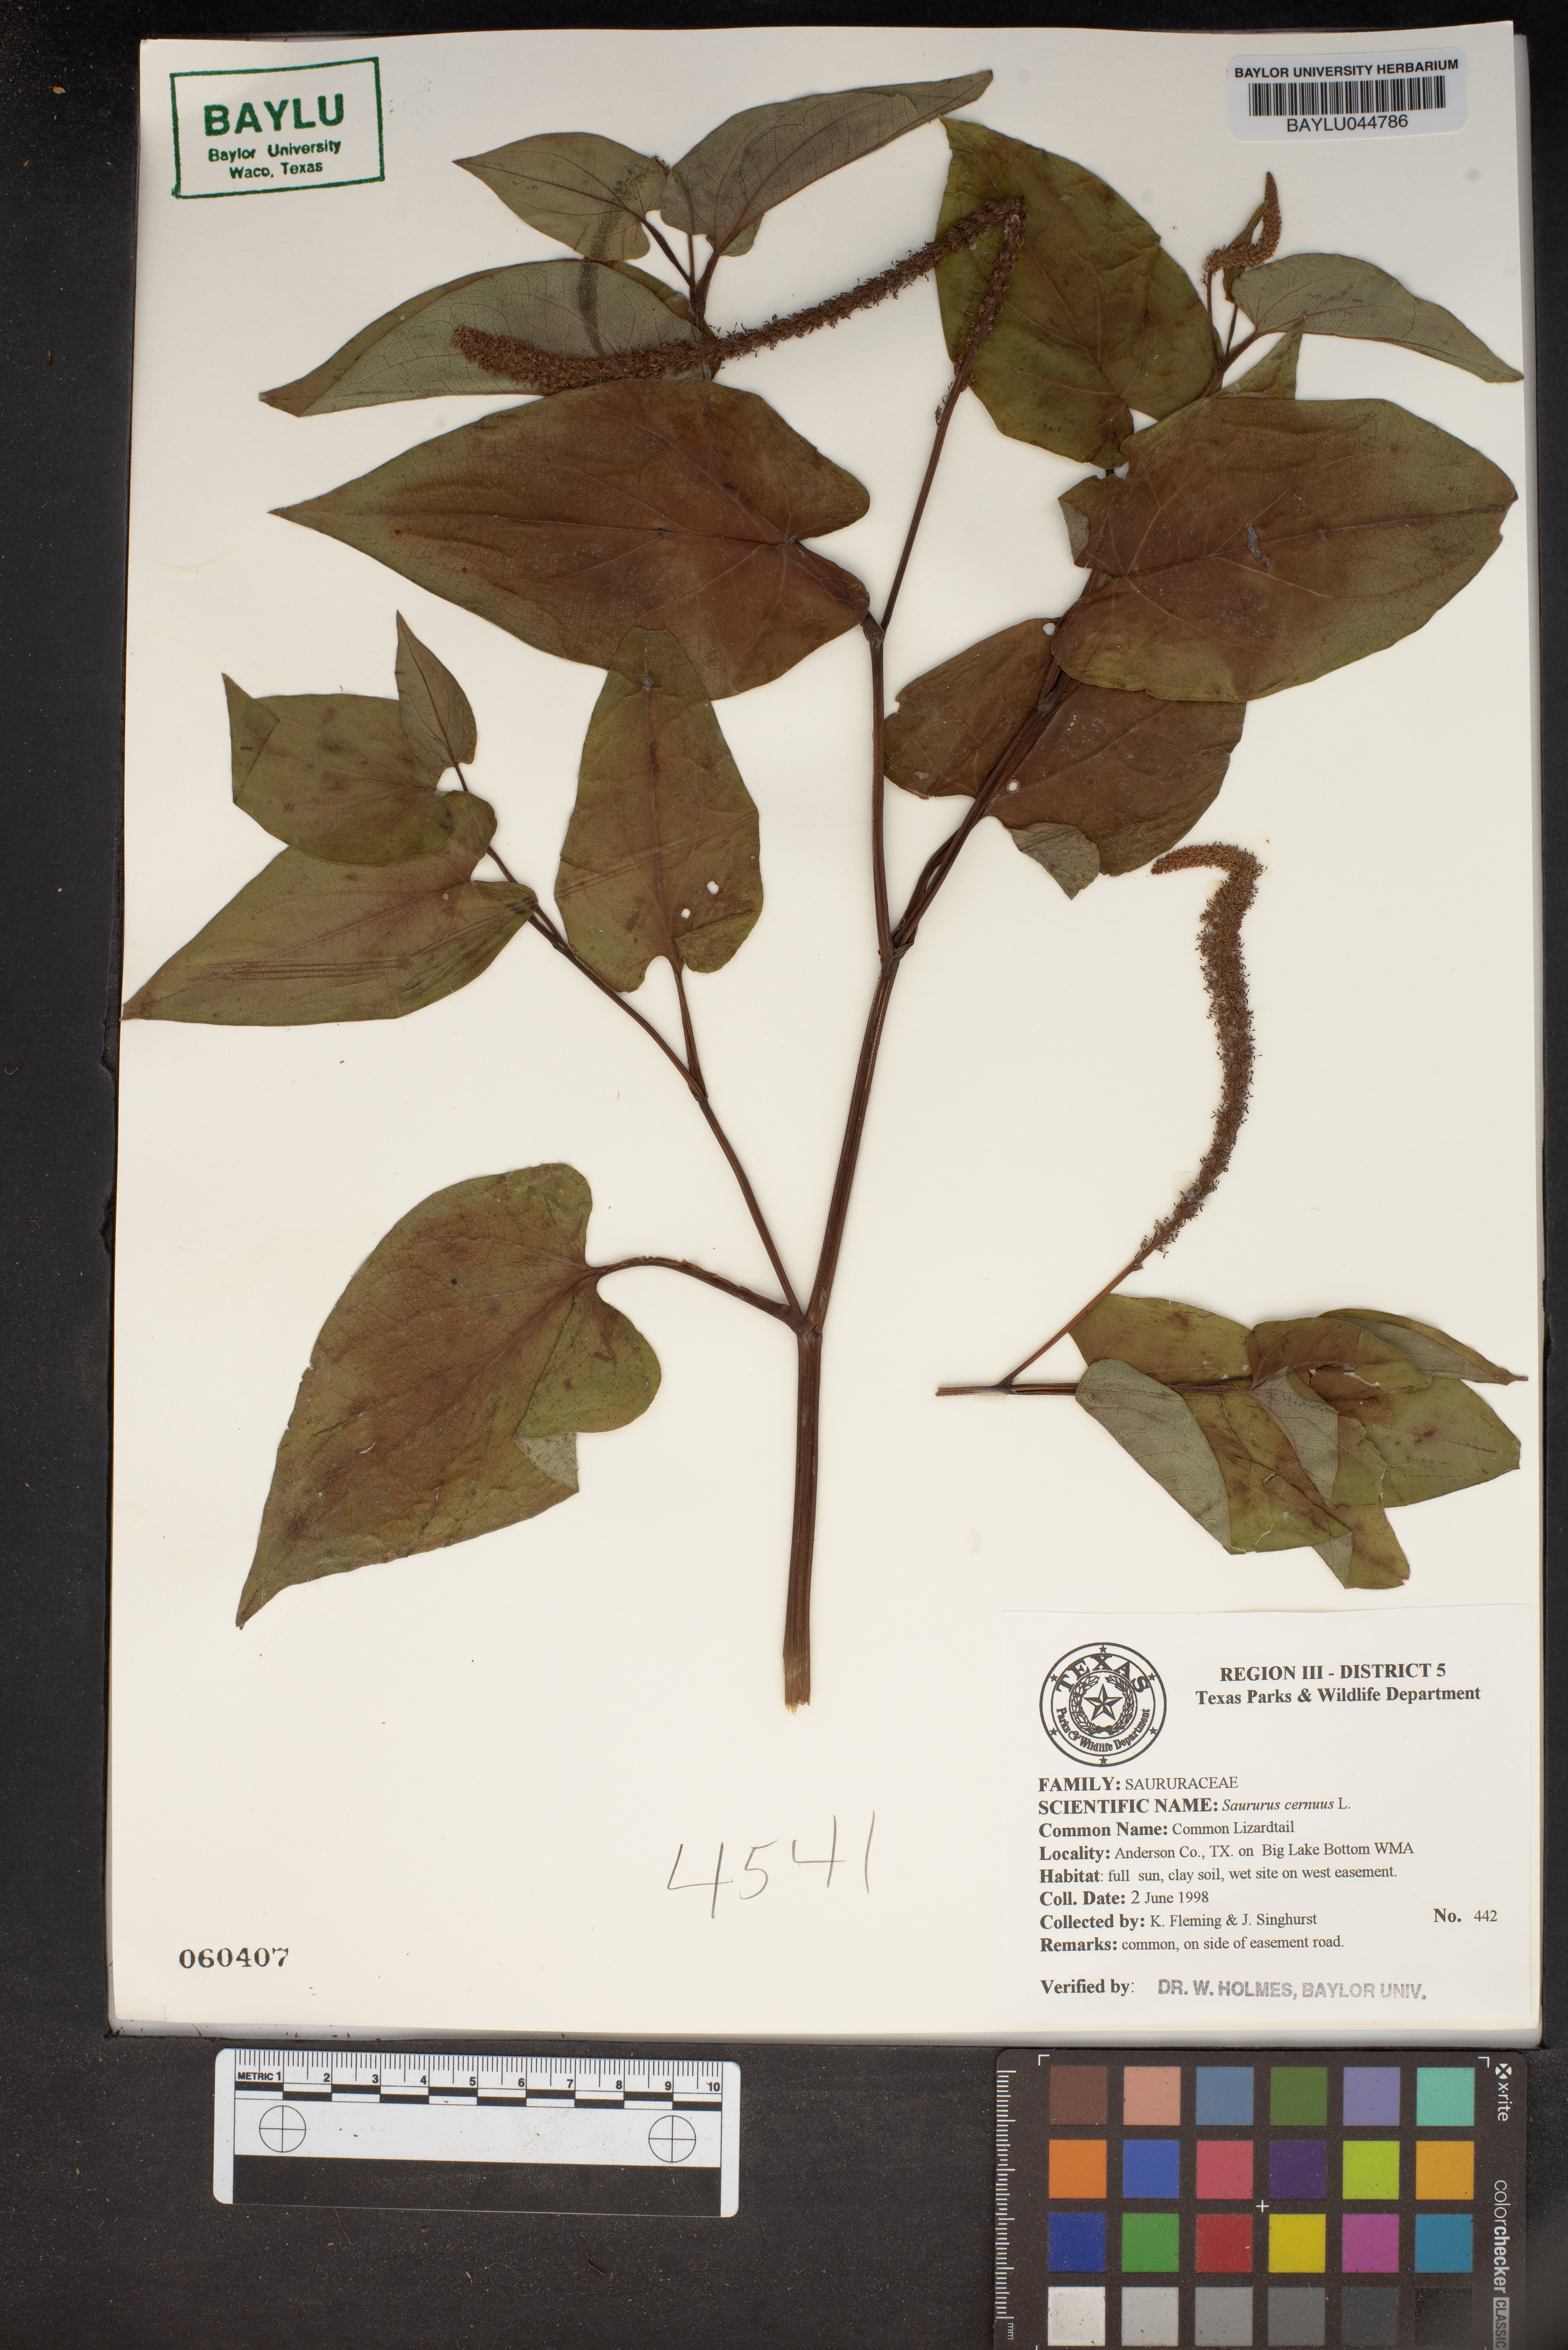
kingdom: Plantae
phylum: Tracheophyta
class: Magnoliopsida
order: Piperales
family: Saururaceae
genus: Saururus
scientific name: Saururus cernuus
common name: Lizard's-tail
